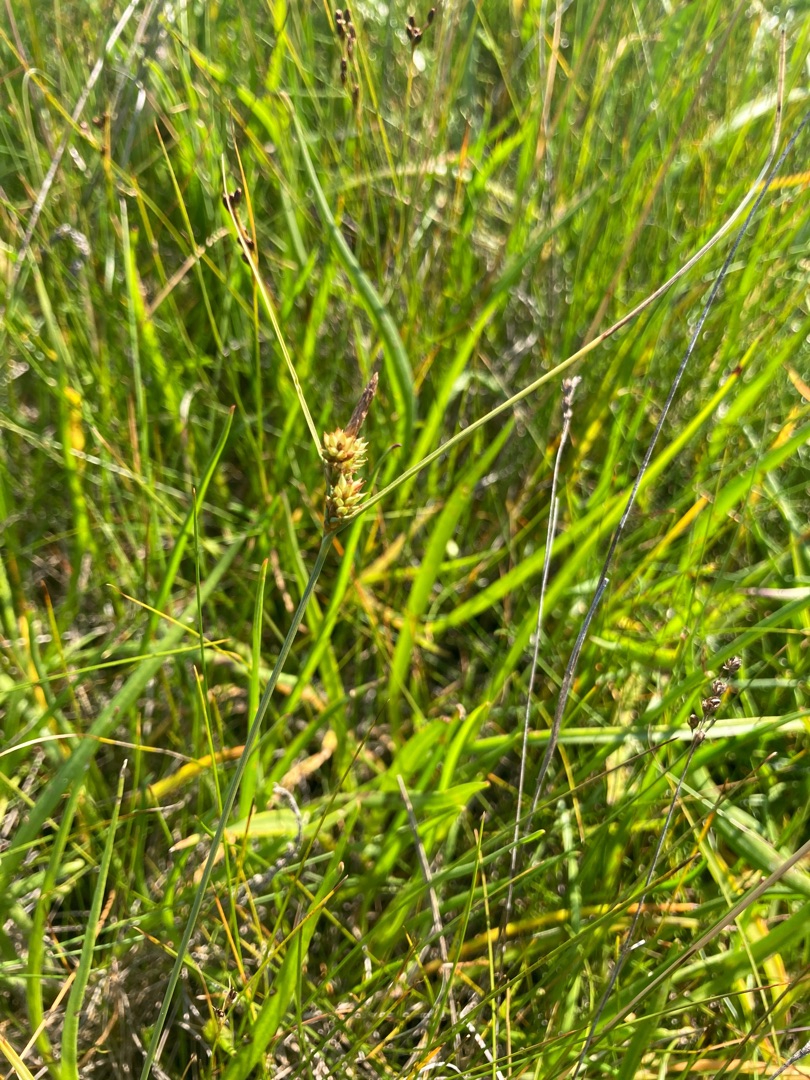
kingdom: Plantae
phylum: Tracheophyta
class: Liliopsida
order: Poales
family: Cyperaceae
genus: Carex
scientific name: Carex extensa
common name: Udspilet star
